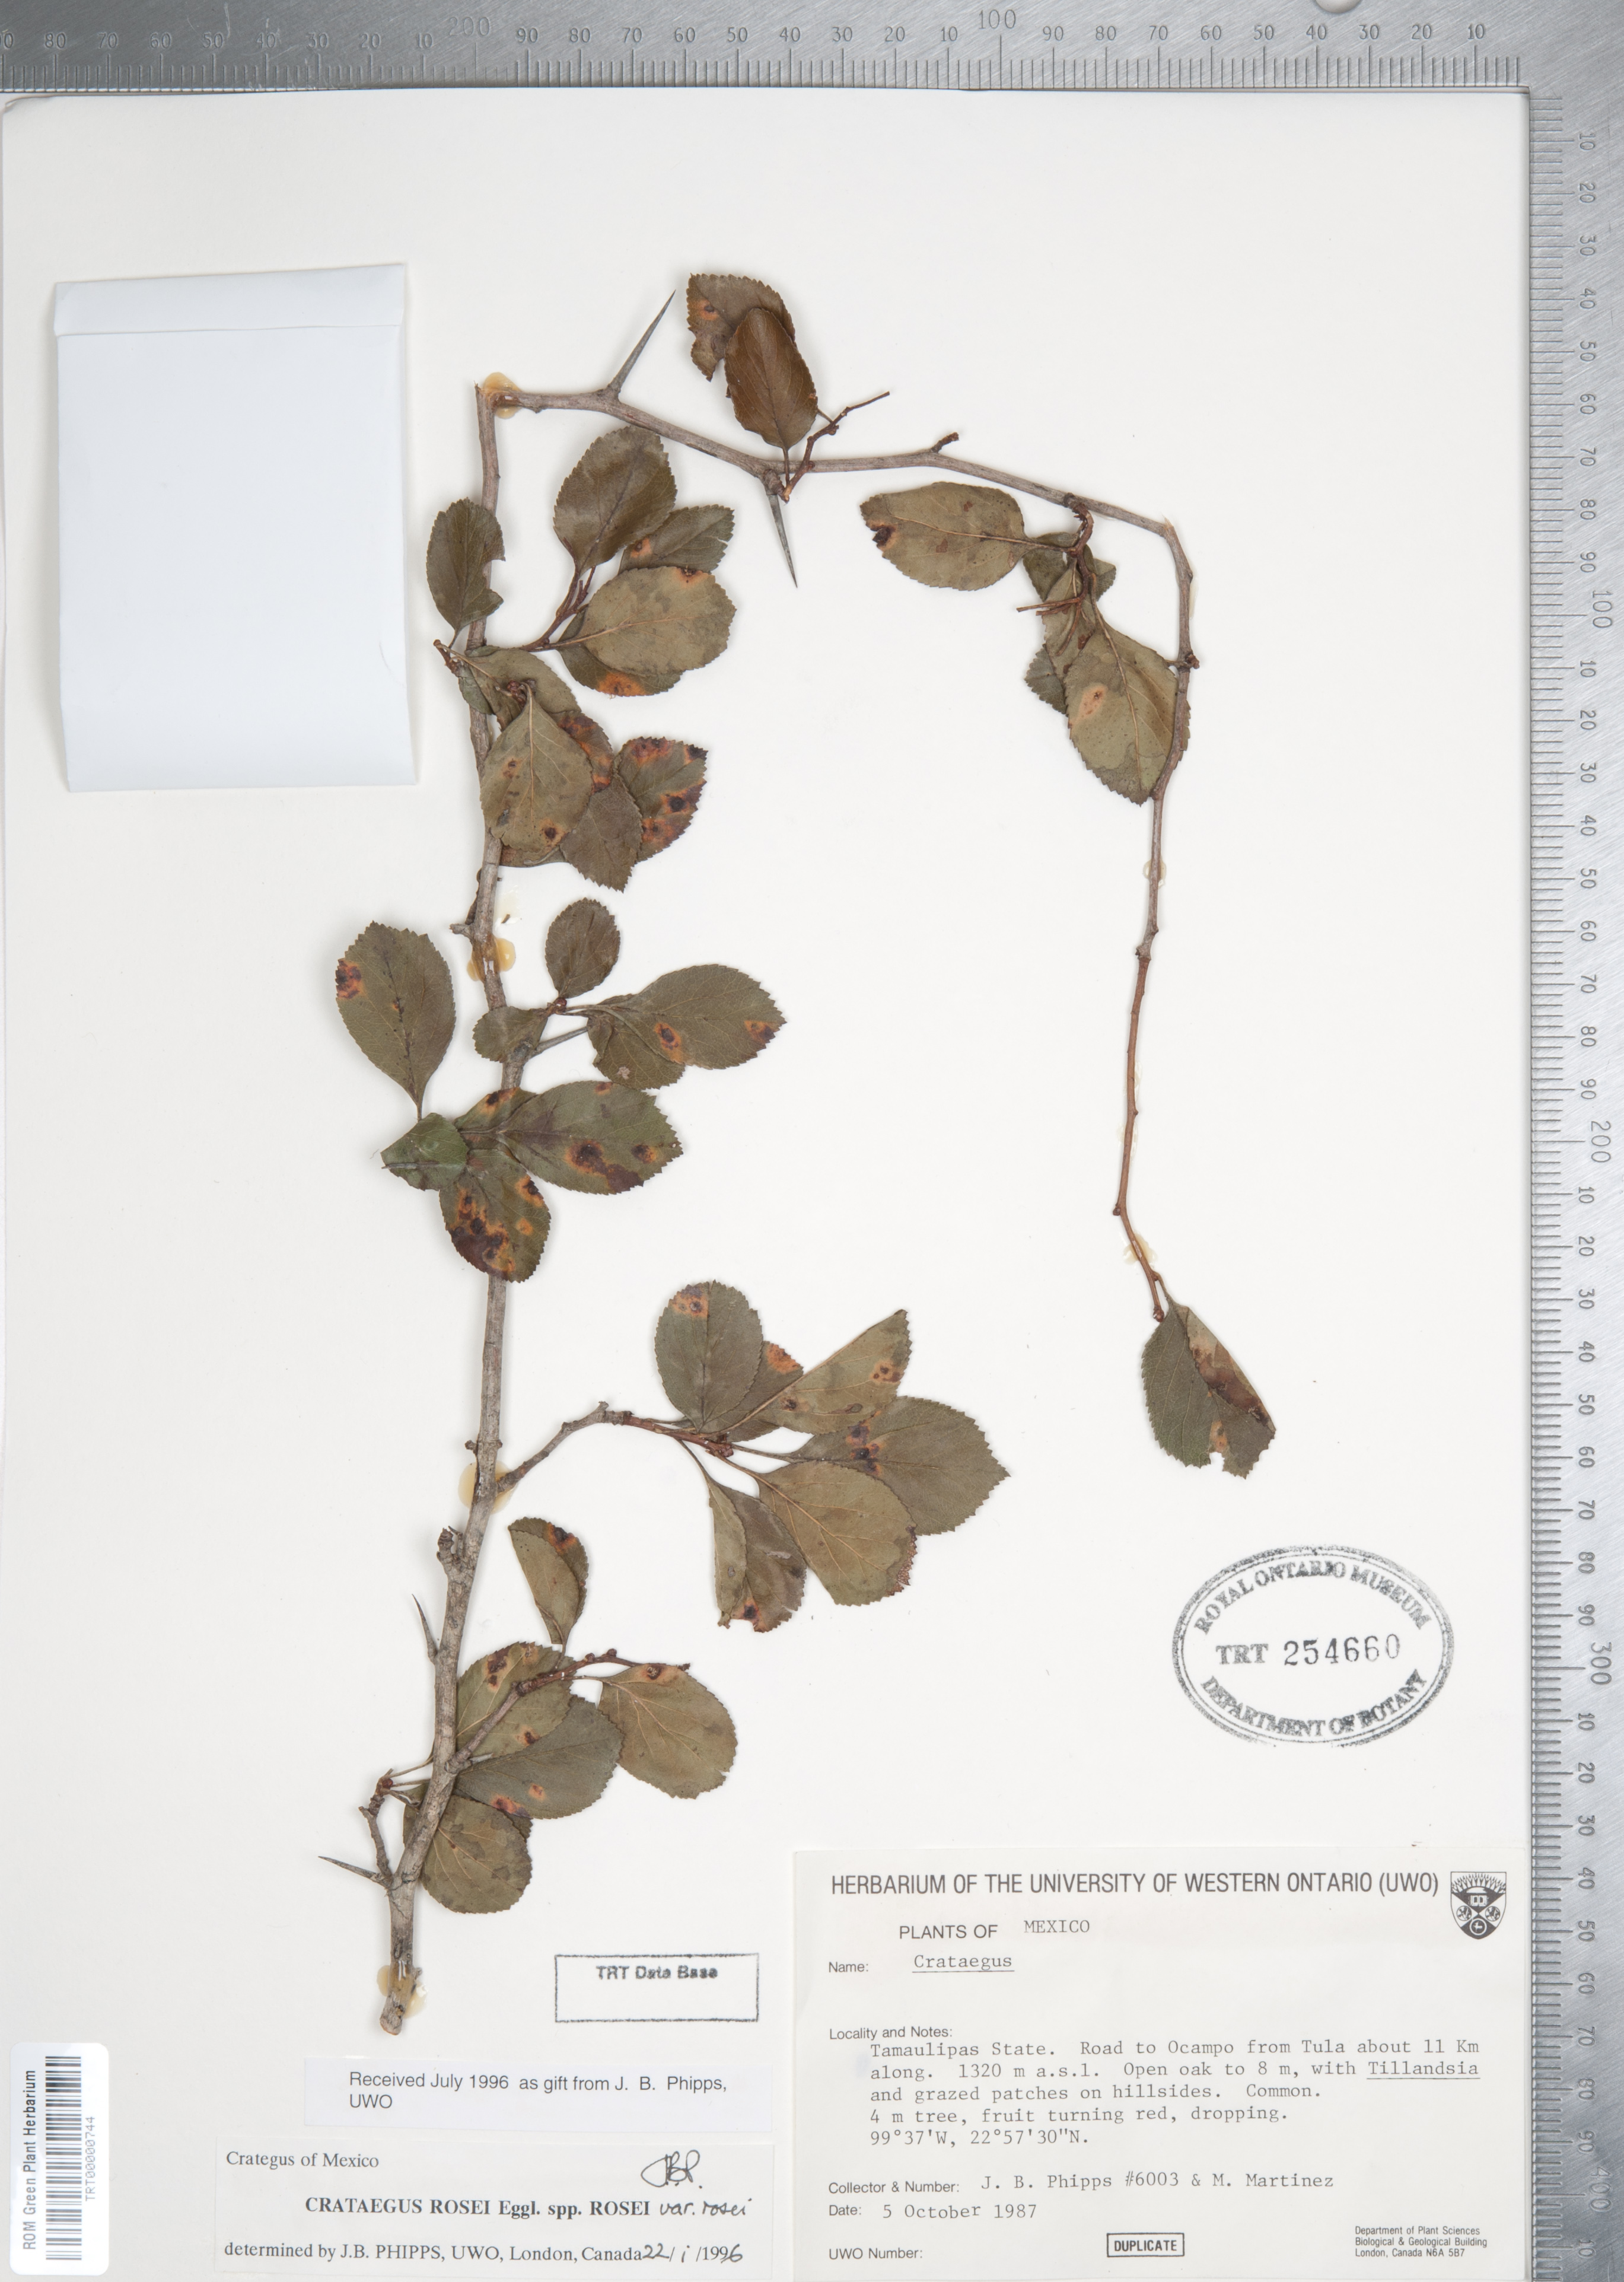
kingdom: Plantae
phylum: Tracheophyta
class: Magnoliopsida
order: Rosales
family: Rosaceae
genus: Crataegus
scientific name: Crataegus rosei
